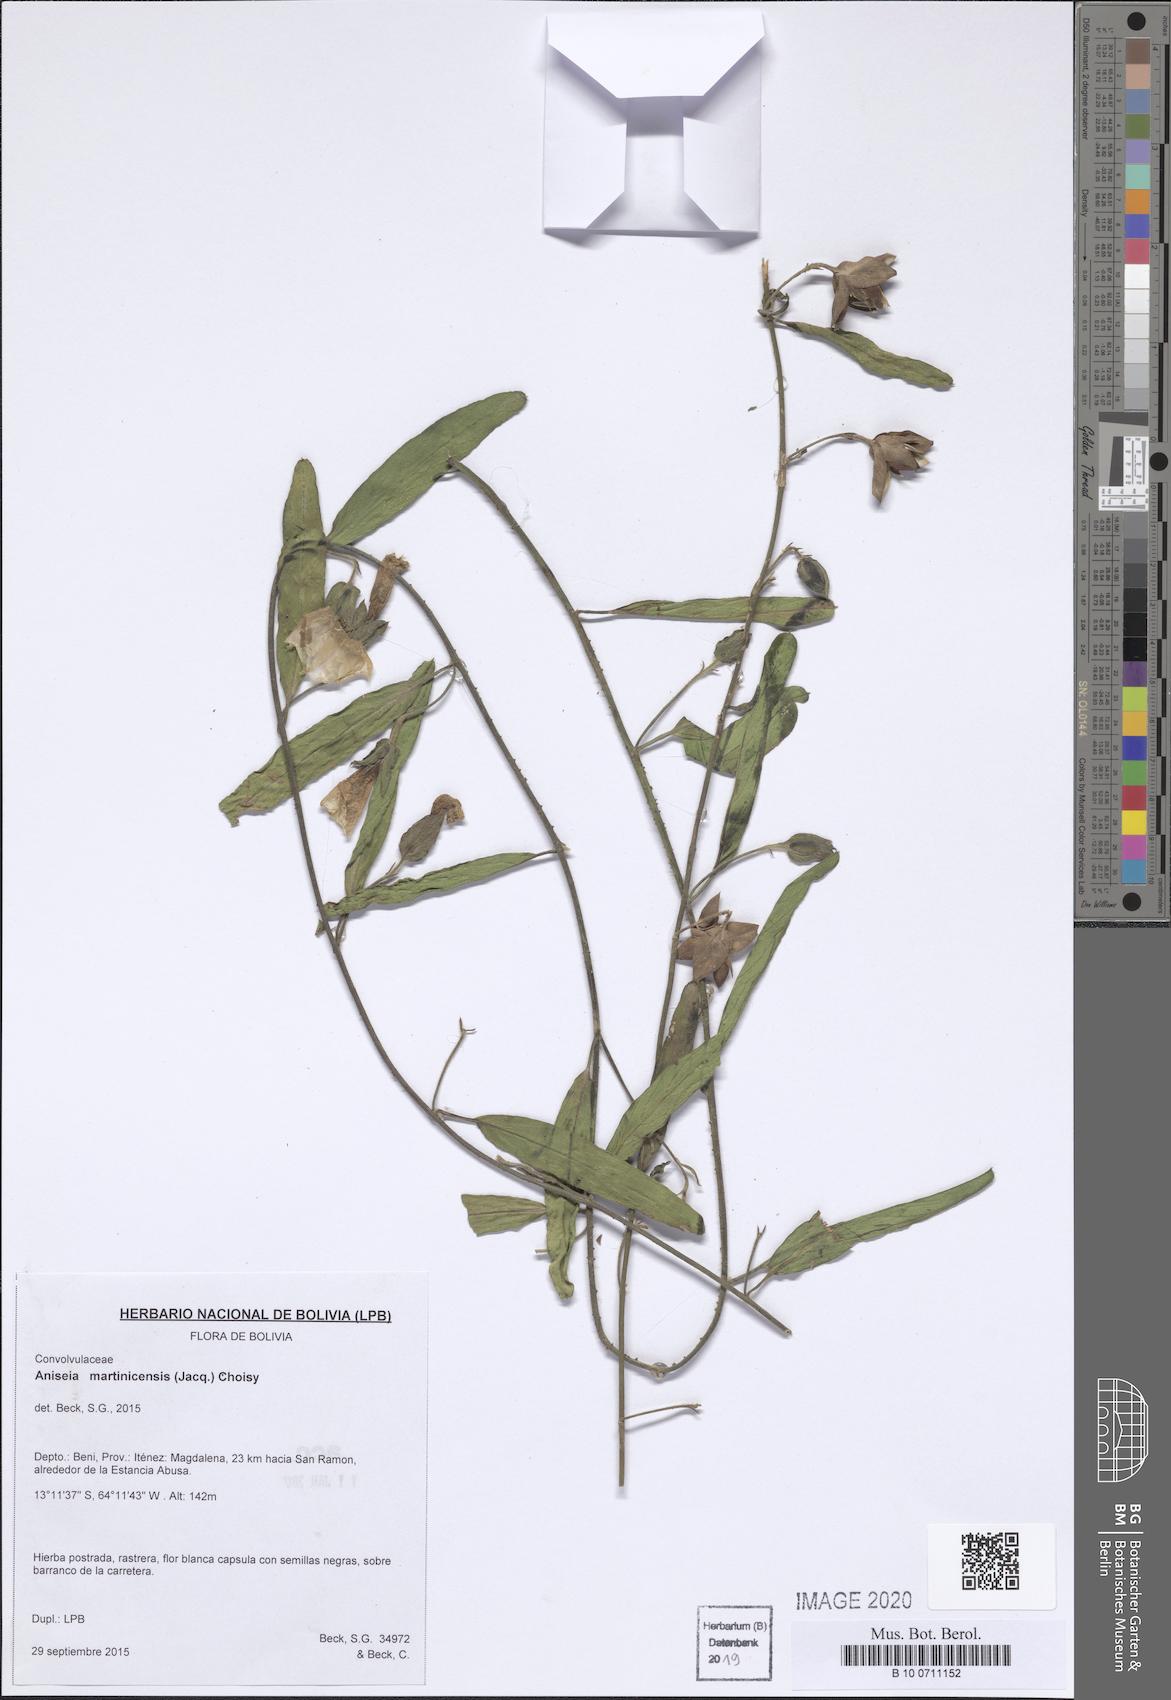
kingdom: Plantae
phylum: Tracheophyta
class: Magnoliopsida
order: Solanales
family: Convolvulaceae
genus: Aniseia
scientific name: Aniseia martinicensis
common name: Kulayadambu
